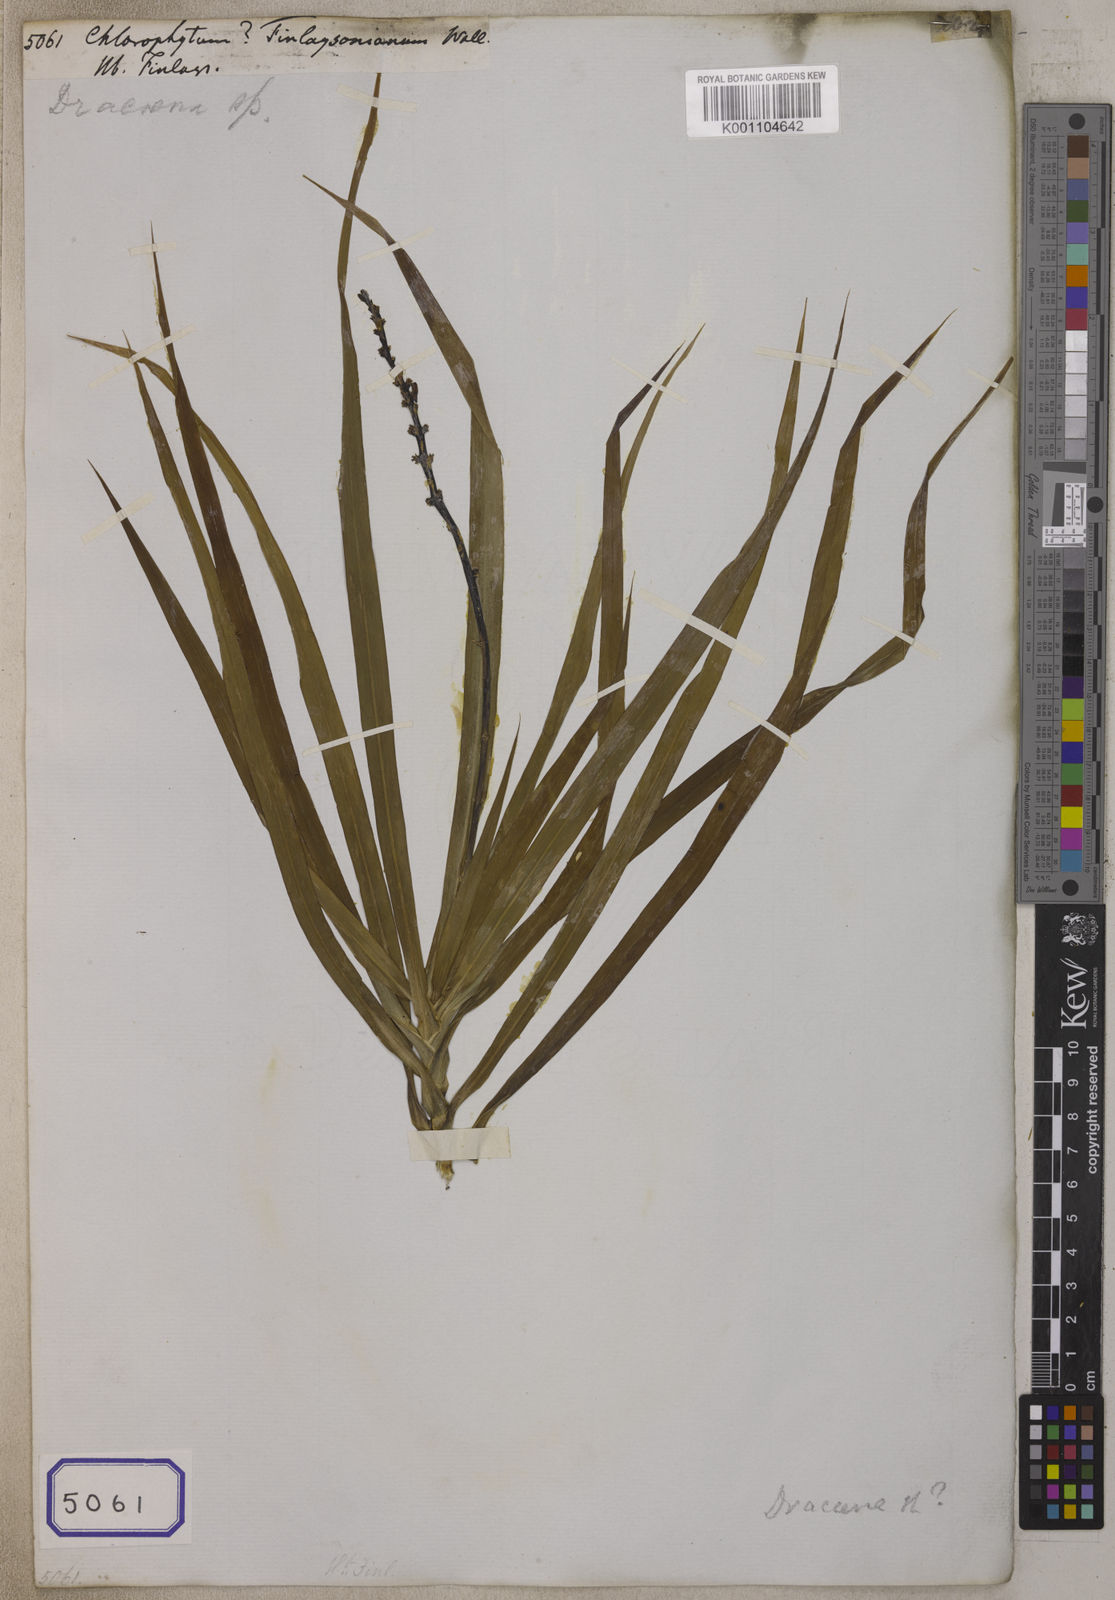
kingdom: Plantae
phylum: Tracheophyta
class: Liliopsida
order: Asparagales
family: Asparagaceae
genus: Chlorophytum
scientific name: Chlorophytum
